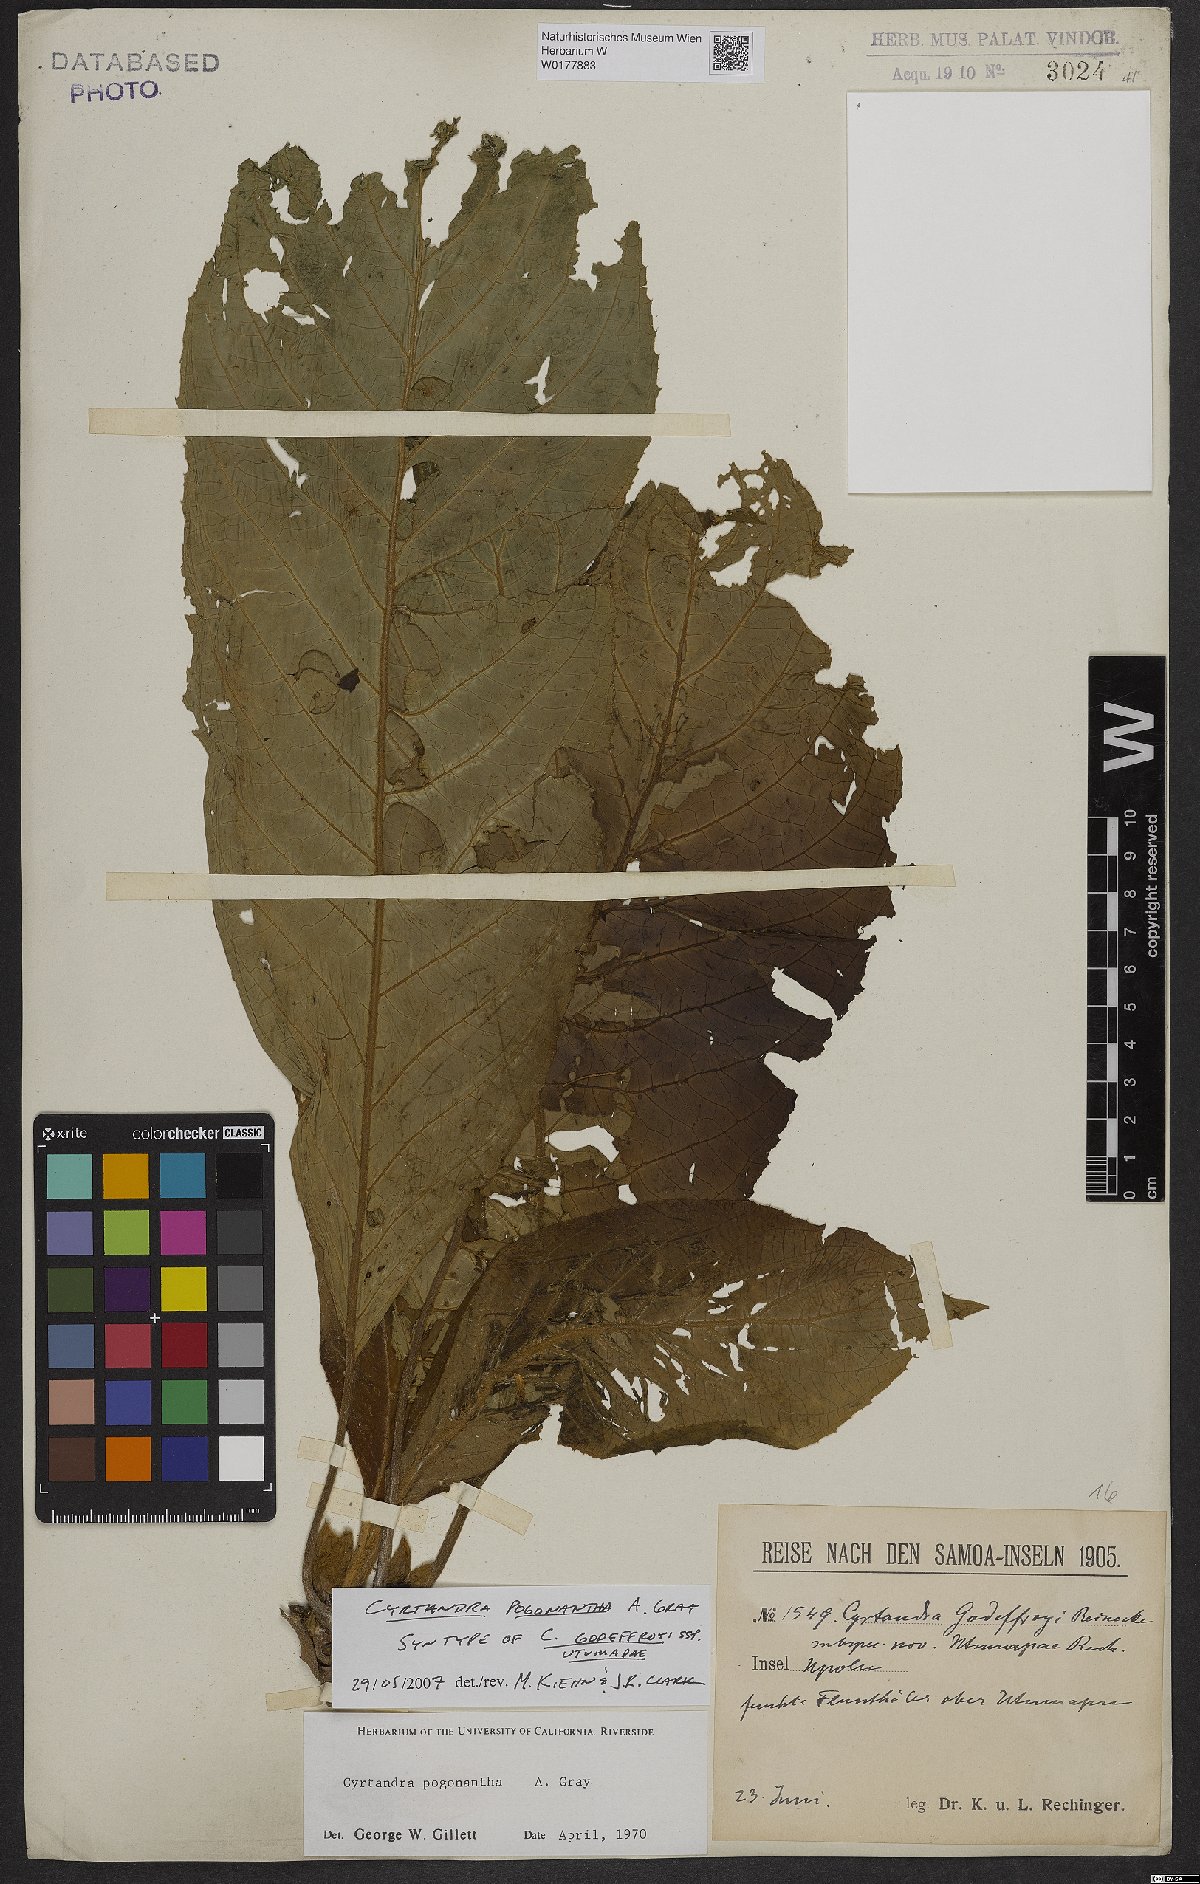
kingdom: Plantae
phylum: Tracheophyta
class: Magnoliopsida
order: Lamiales
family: Gesneriaceae
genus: Cyrtandra
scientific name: Cyrtandra pogonantha
